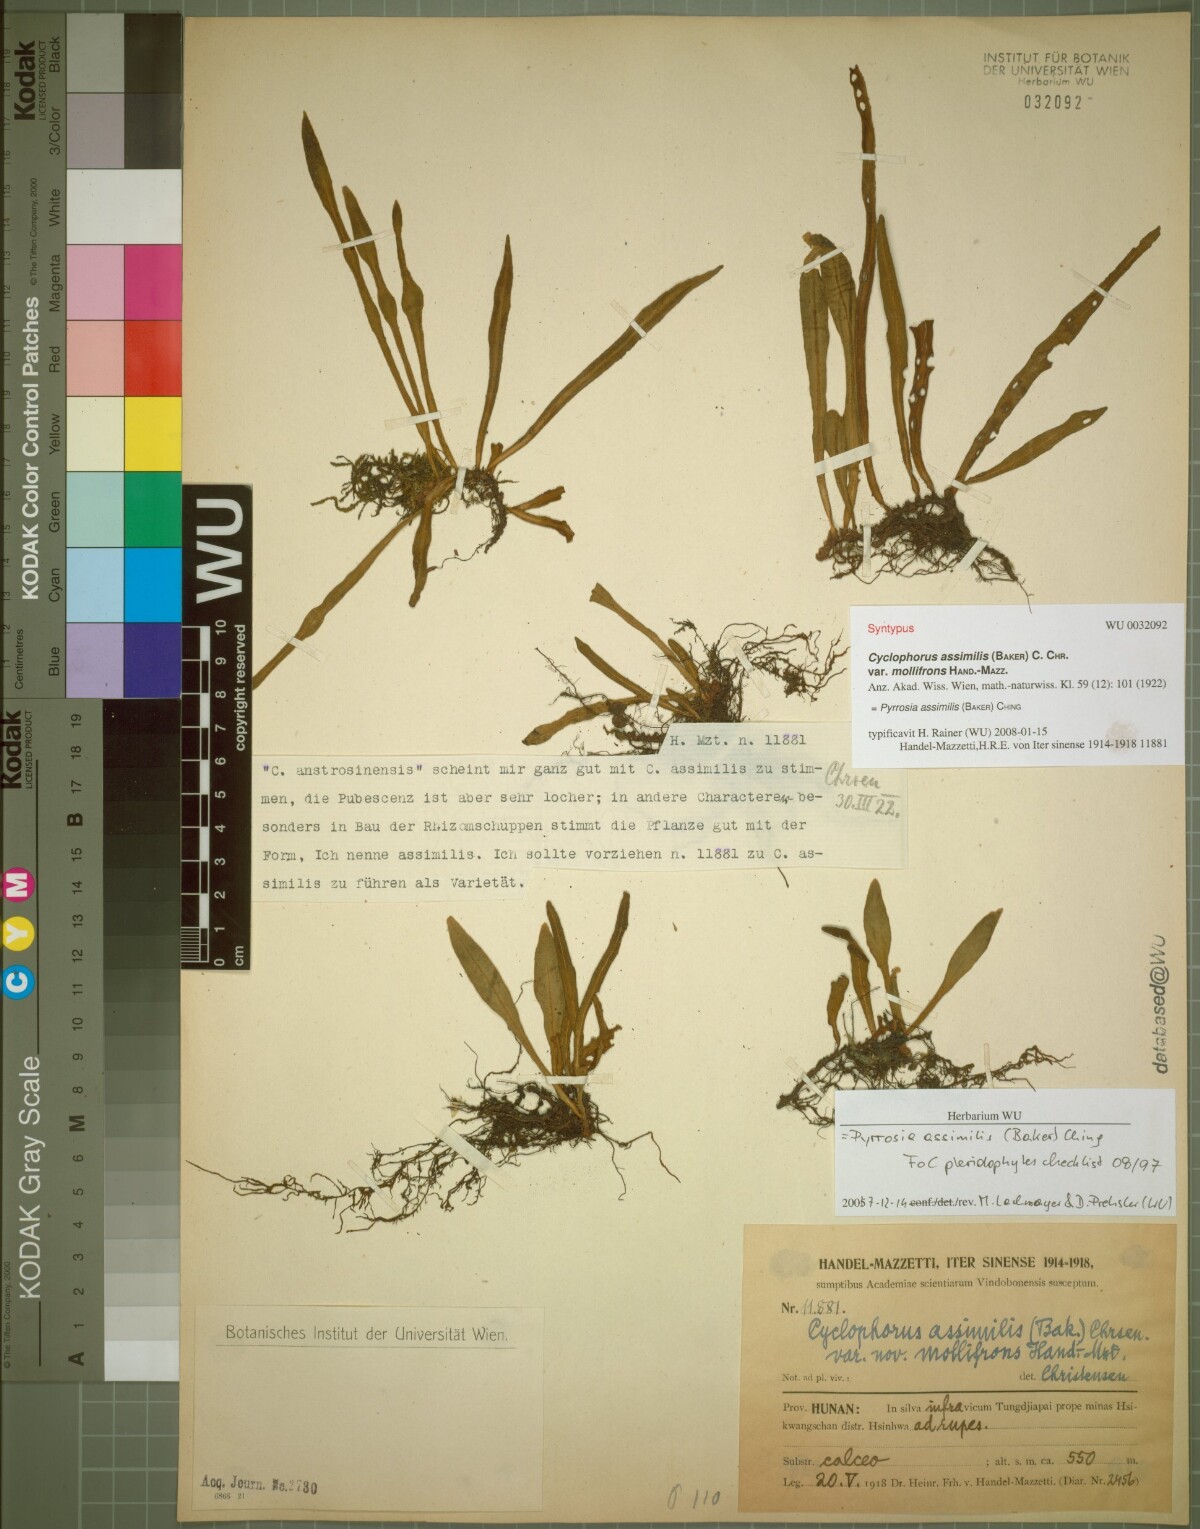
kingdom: Plantae
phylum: Tracheophyta
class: Polypodiopsida
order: Polypodiales
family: Polypodiaceae
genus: Pyrrosia
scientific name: Pyrrosia assimilis
